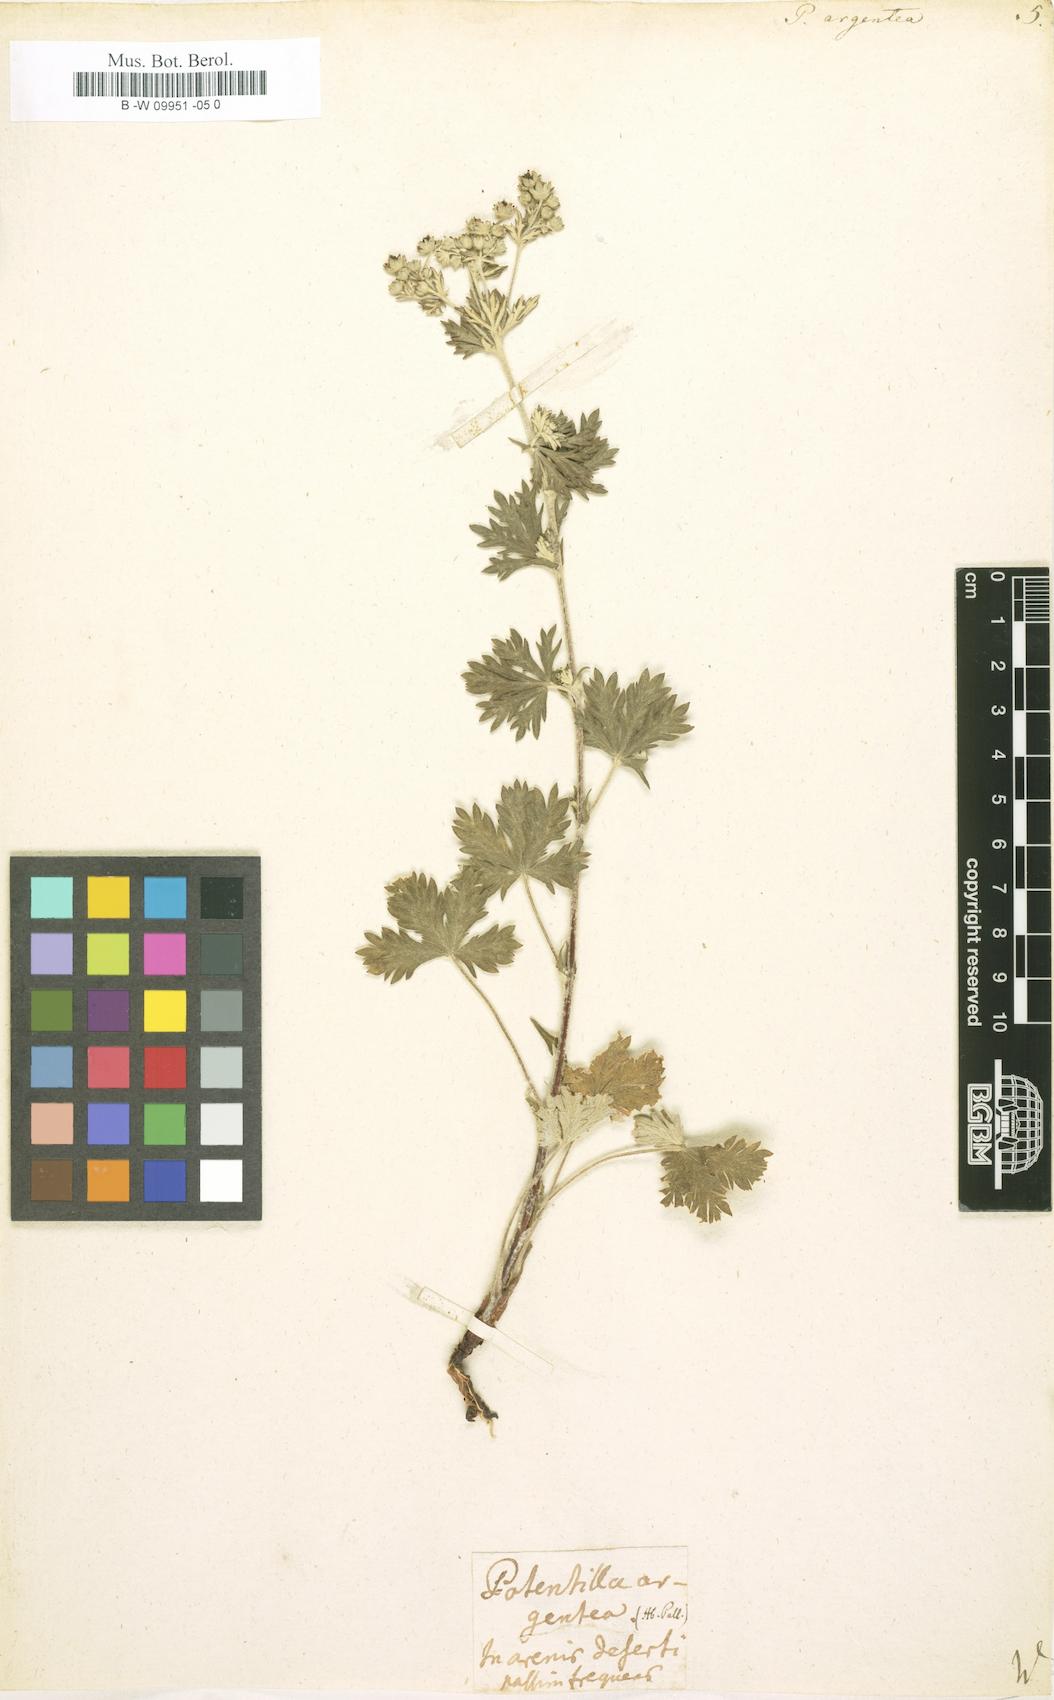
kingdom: Plantae
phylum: Tracheophyta
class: Magnoliopsida
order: Rosales
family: Rosaceae
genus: Potentilla
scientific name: Potentilla argentea
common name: Hoary cinquefoil
